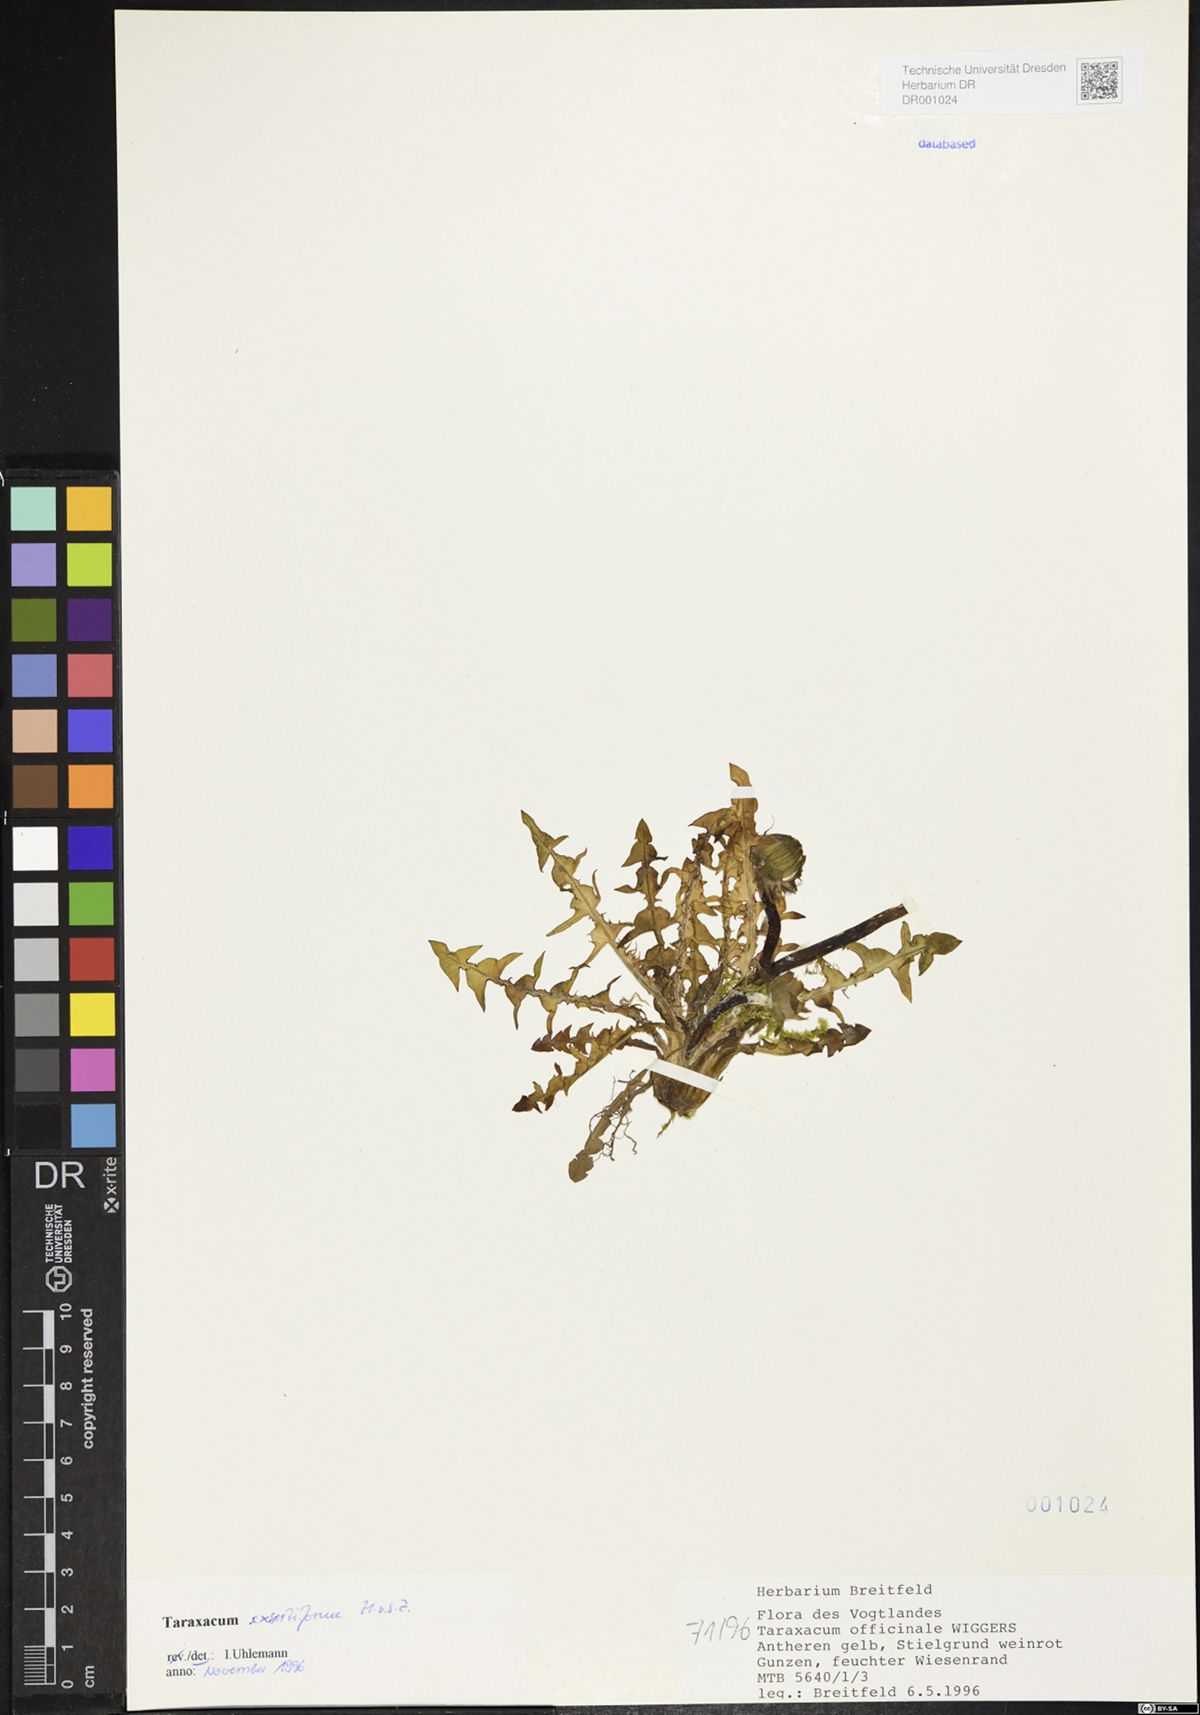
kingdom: Plantae
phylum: Tracheophyta
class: Magnoliopsida
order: Asterales
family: Asteraceae
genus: Taraxacum
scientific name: Taraxacum exsertiforme
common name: Erect-bracted dandelion
